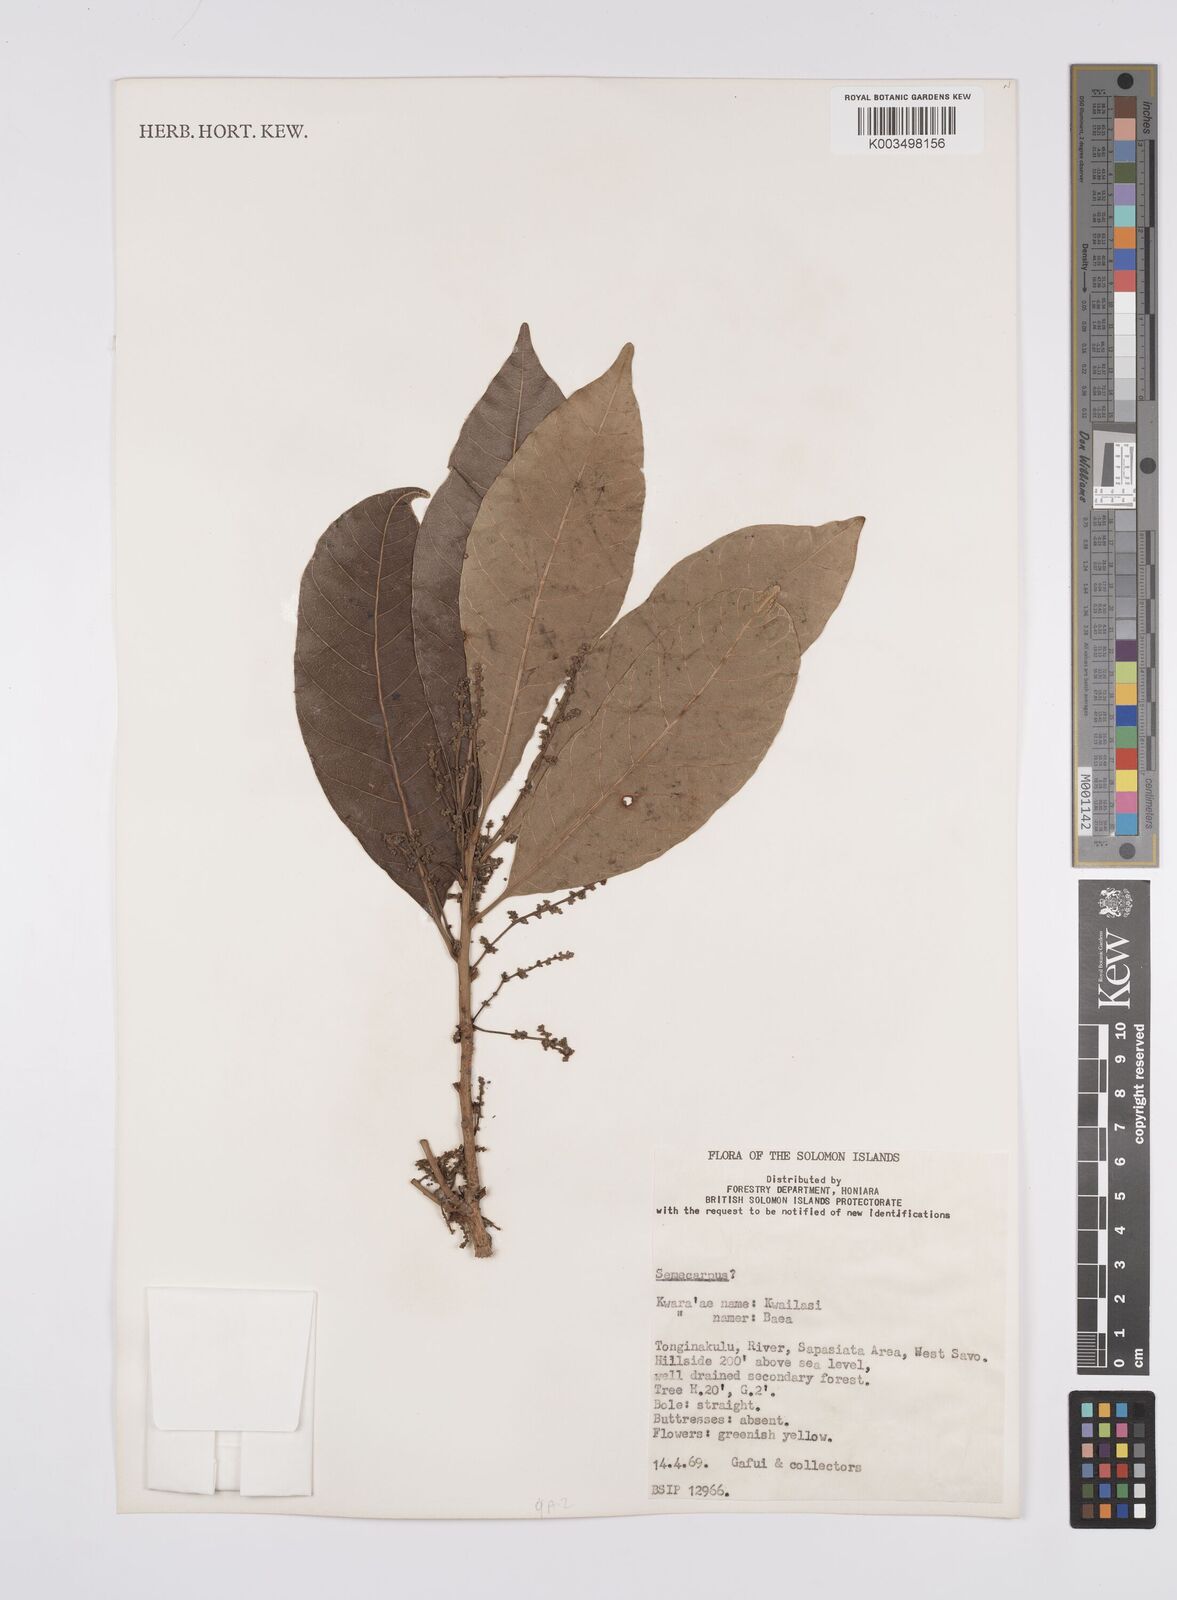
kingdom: Plantae
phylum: Tracheophyta
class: Magnoliopsida
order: Sapindales
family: Anacardiaceae
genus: Semecarpus
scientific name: Semecarpus
